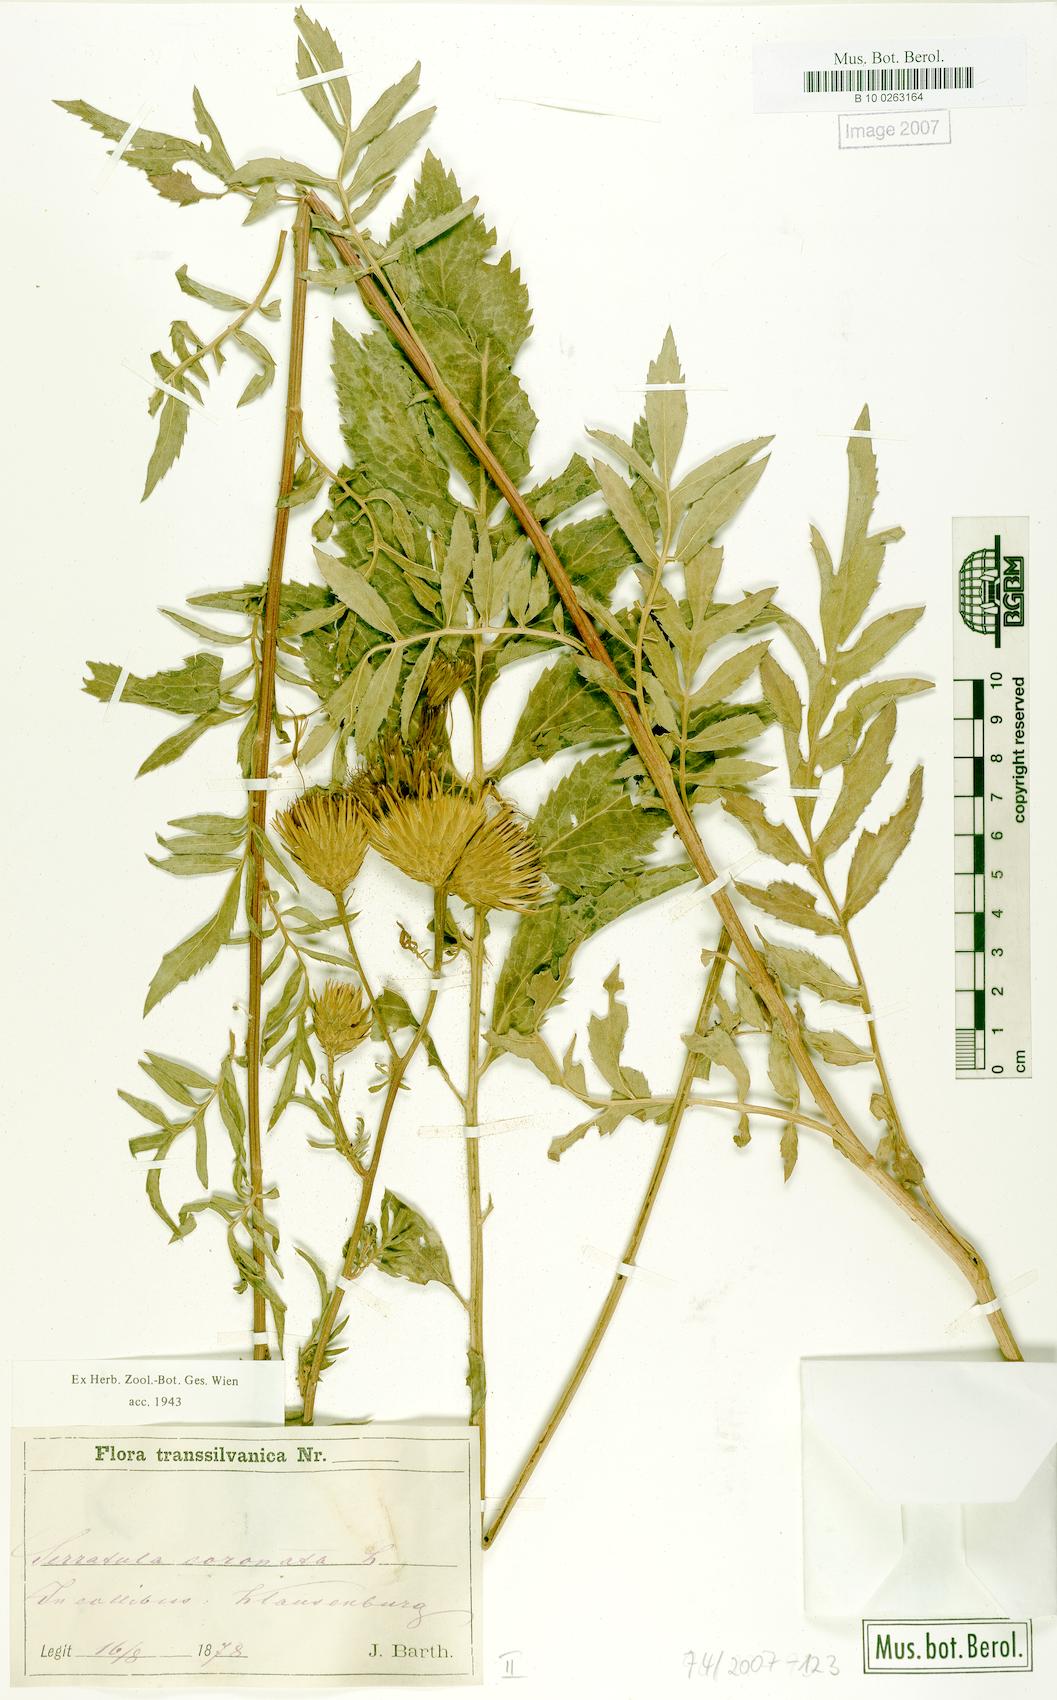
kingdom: Plantae
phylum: Tracheophyta
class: Magnoliopsida
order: Asterales
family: Asteraceae
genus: Serratula
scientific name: Serratula coronata
